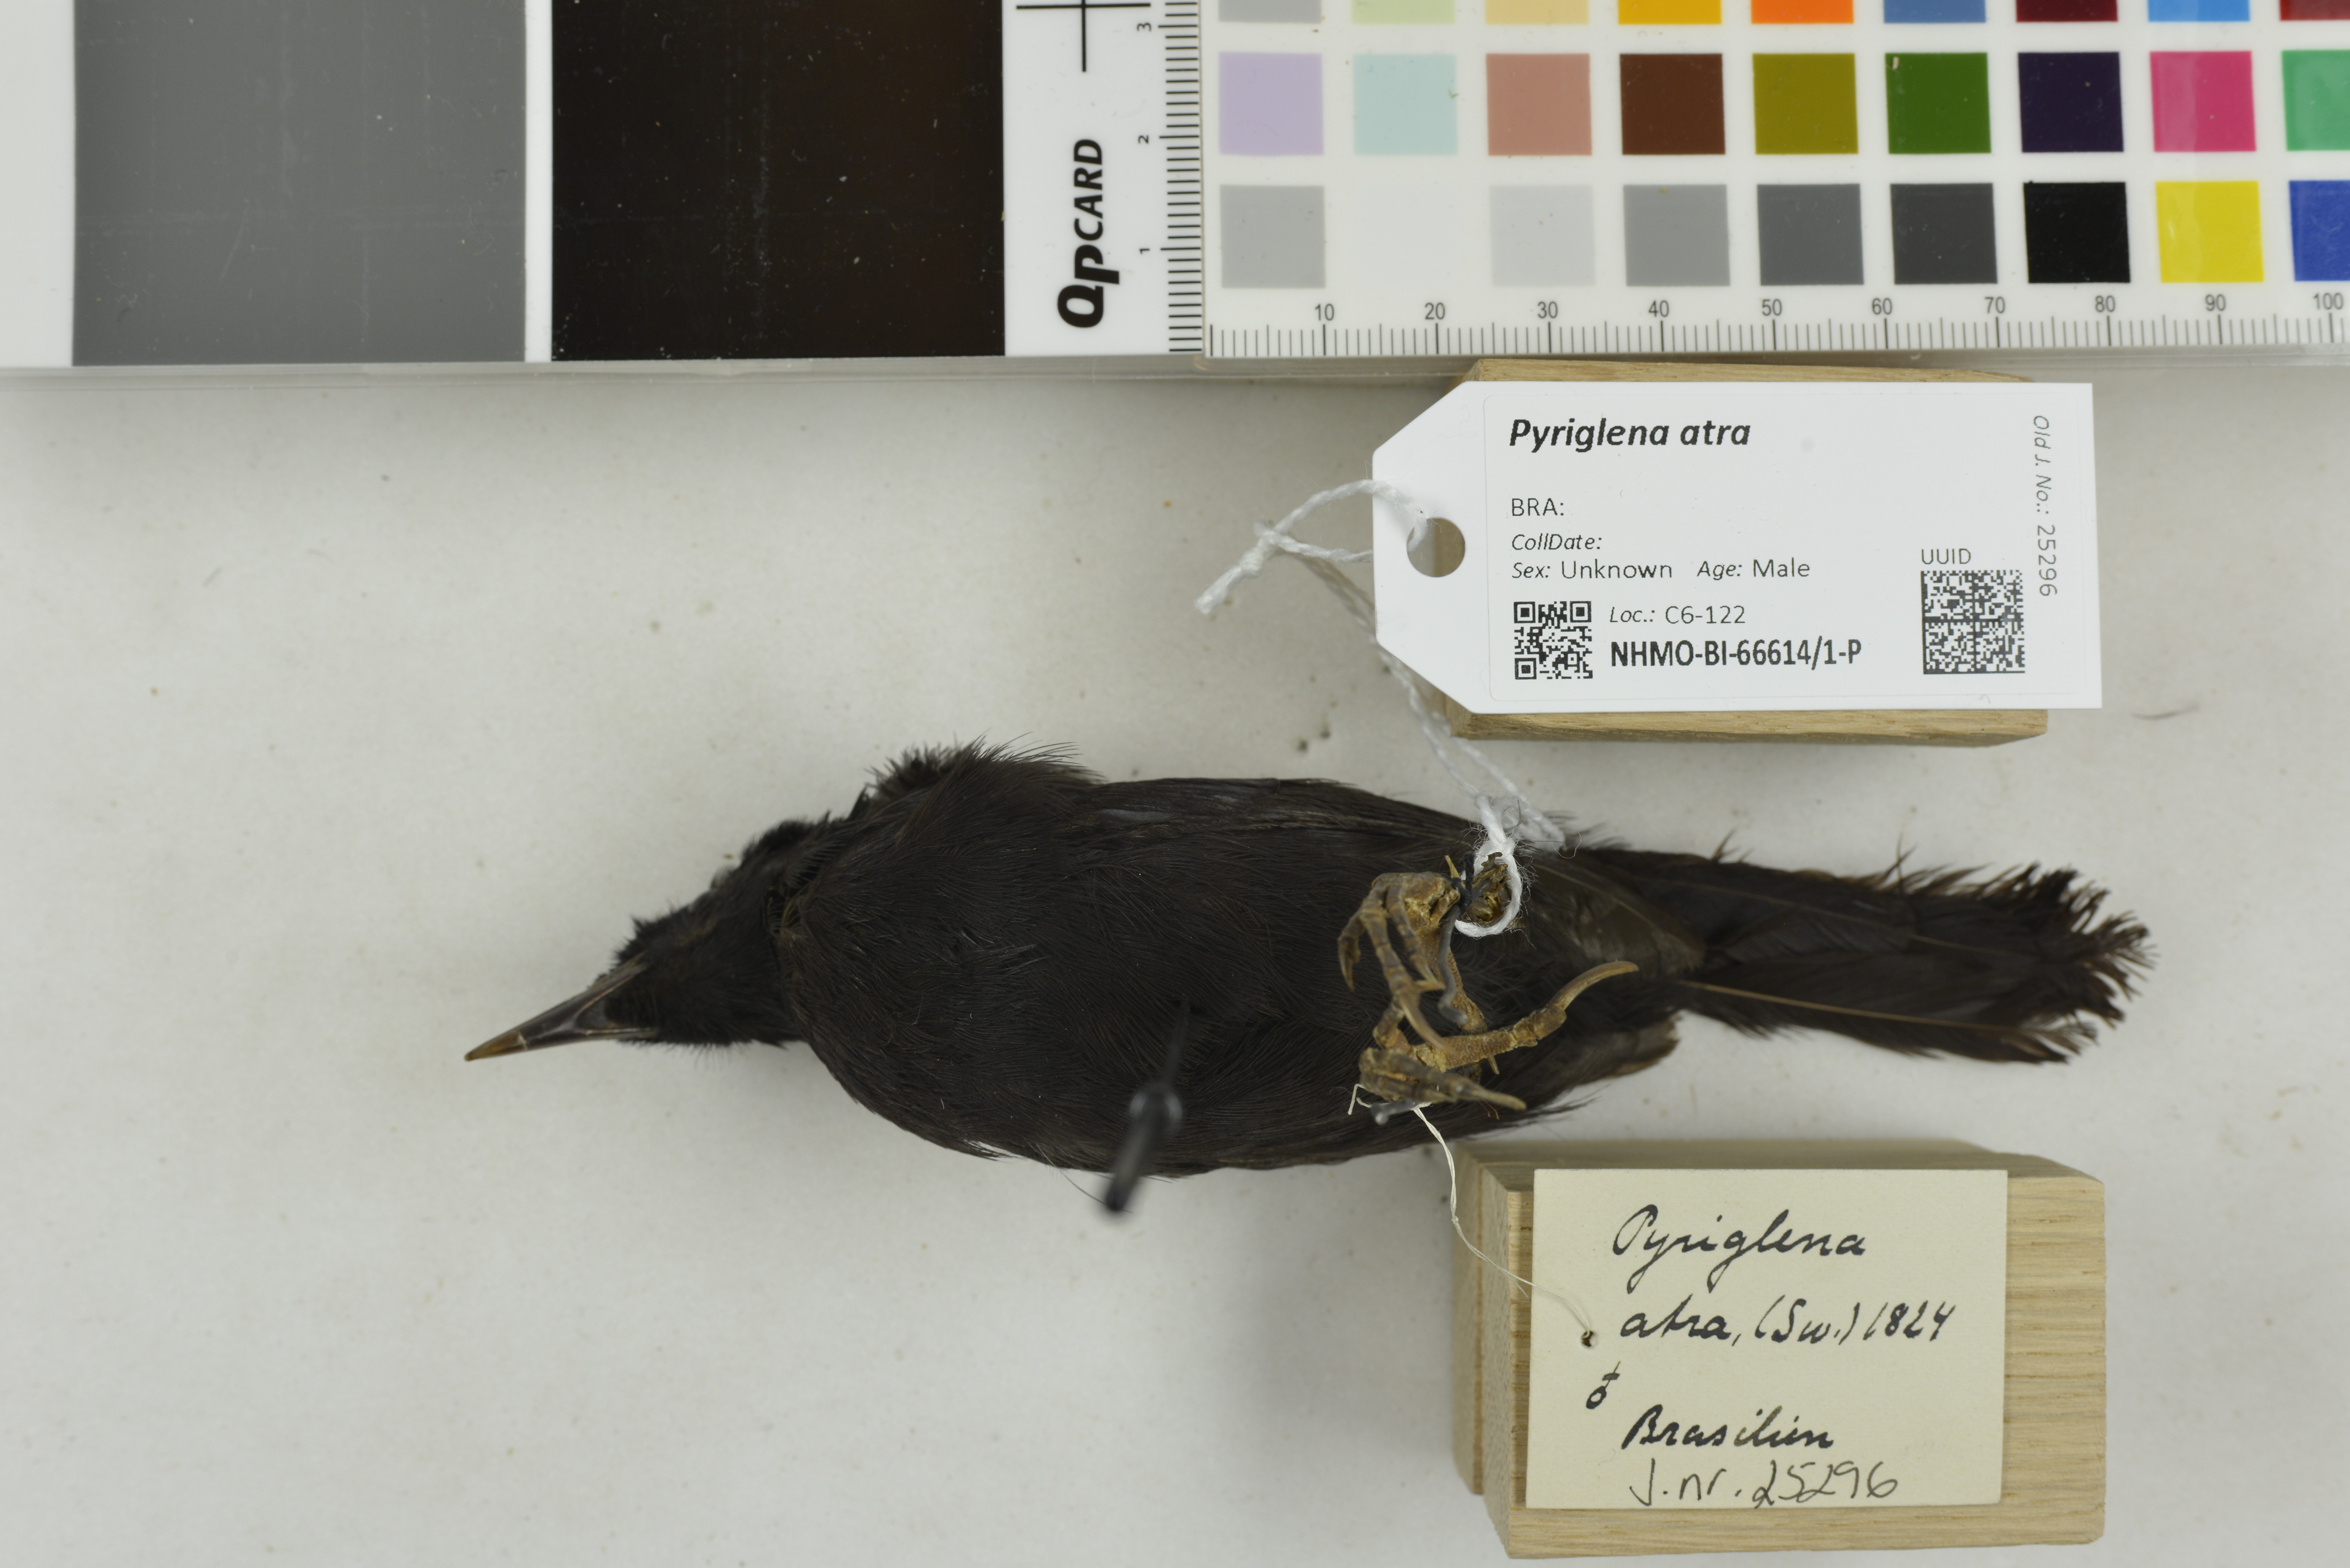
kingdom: Animalia
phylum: Chordata
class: Aves
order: Passeriformes
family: Thamnophilidae
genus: Pyriglena
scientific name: Pyriglena atra
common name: Fringe-backed fire-eye
